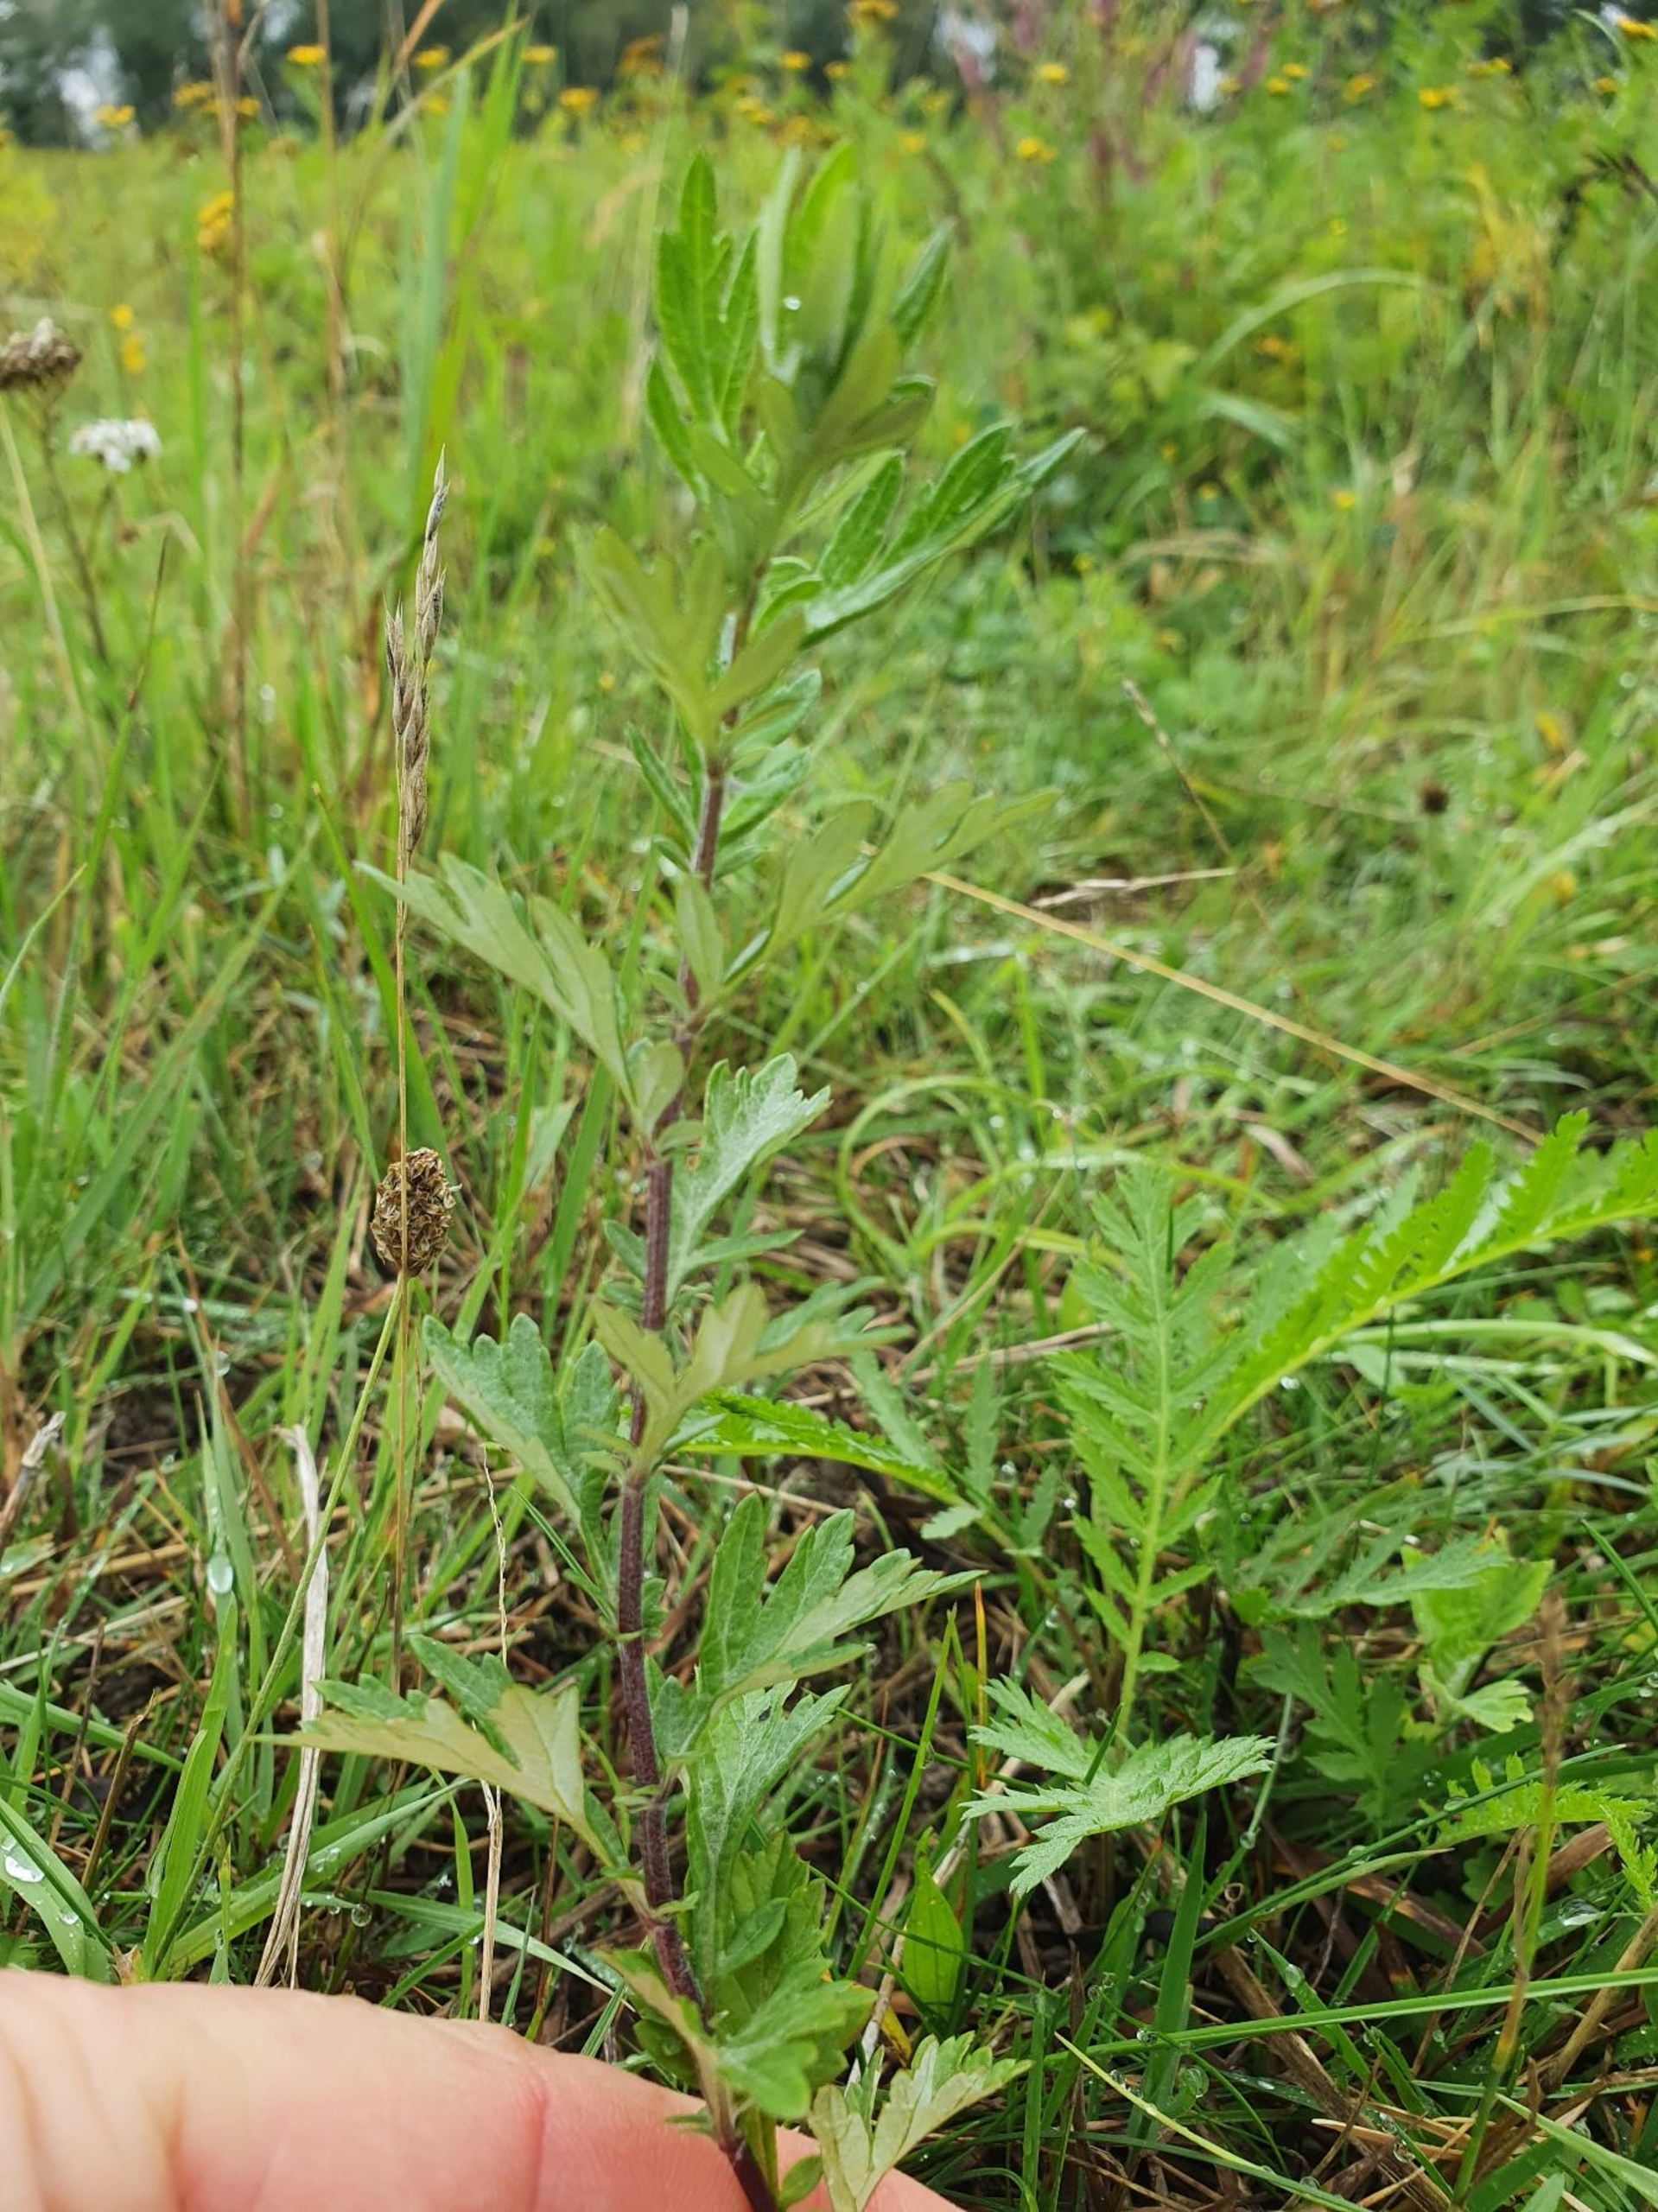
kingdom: Plantae
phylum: Tracheophyta
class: Magnoliopsida
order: Asterales
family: Asteraceae
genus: Artemisia
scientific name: Artemisia vulgaris
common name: Grå-bynke
